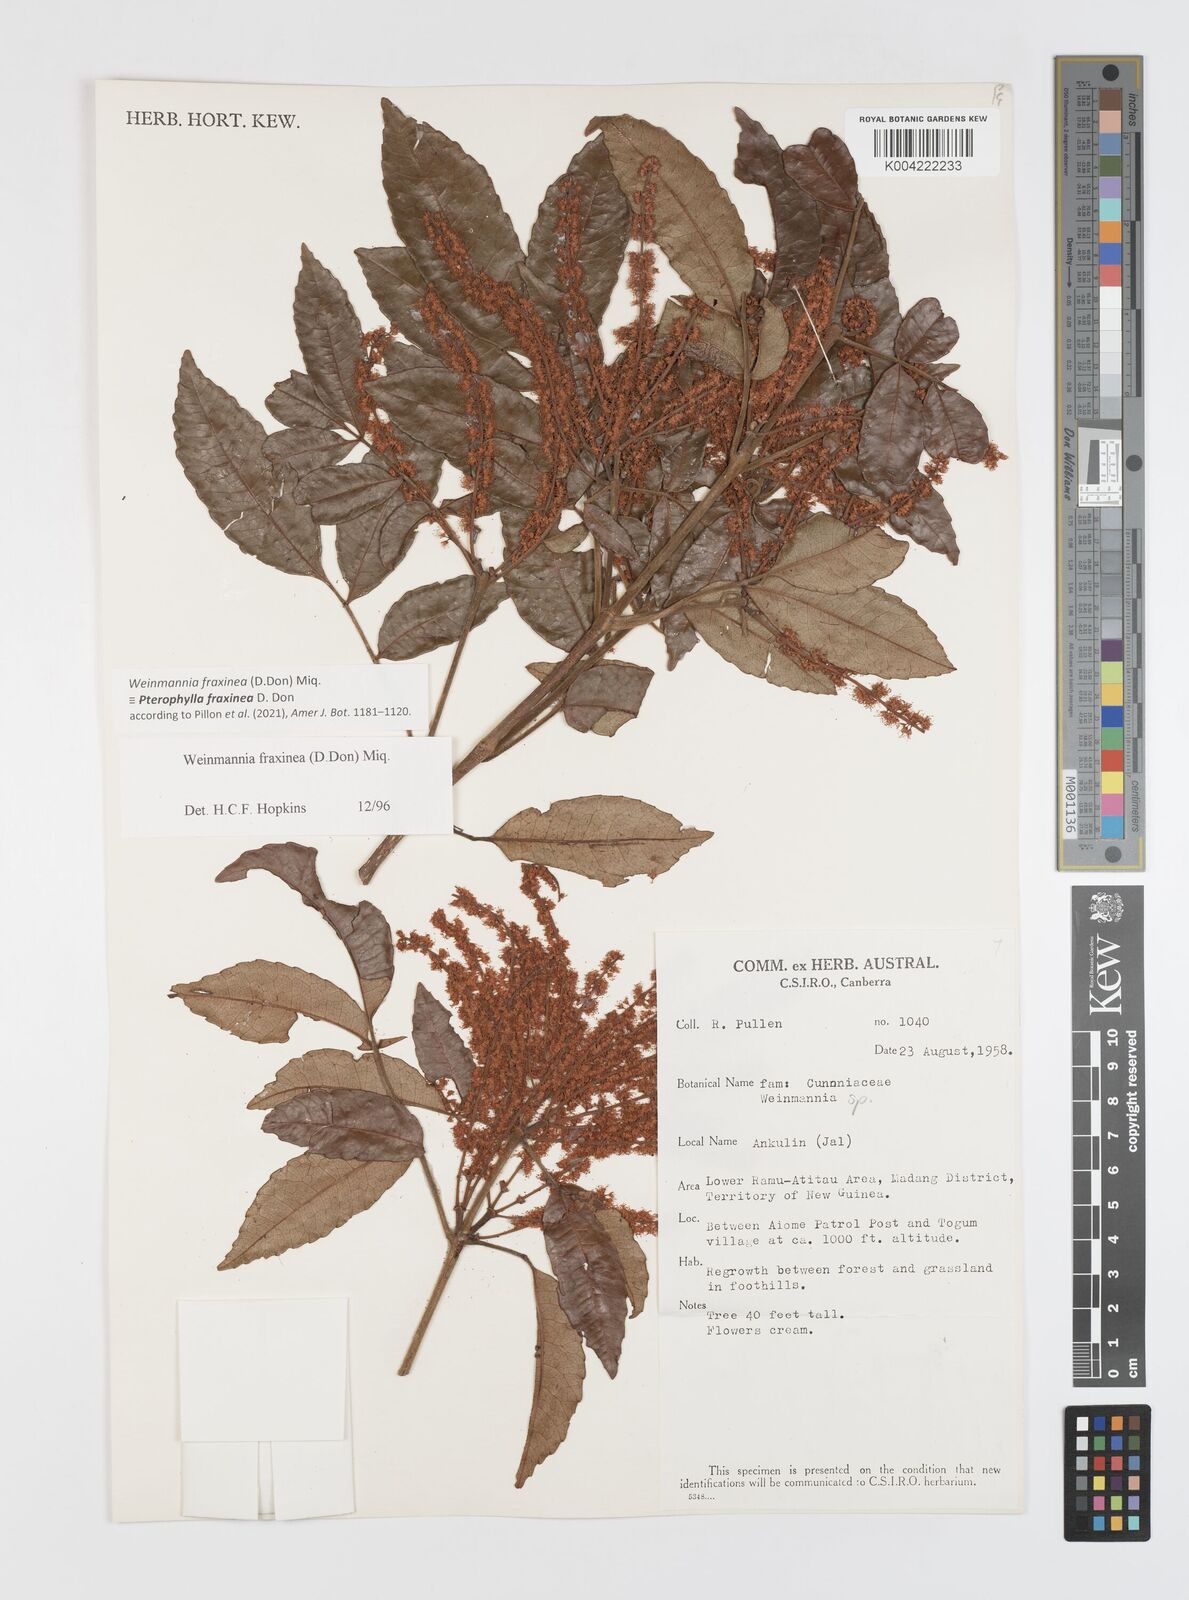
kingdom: Plantae
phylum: Tracheophyta
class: Magnoliopsida
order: Oxalidales
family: Cunoniaceae
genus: Pterophylla
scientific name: Pterophylla fraxinea
